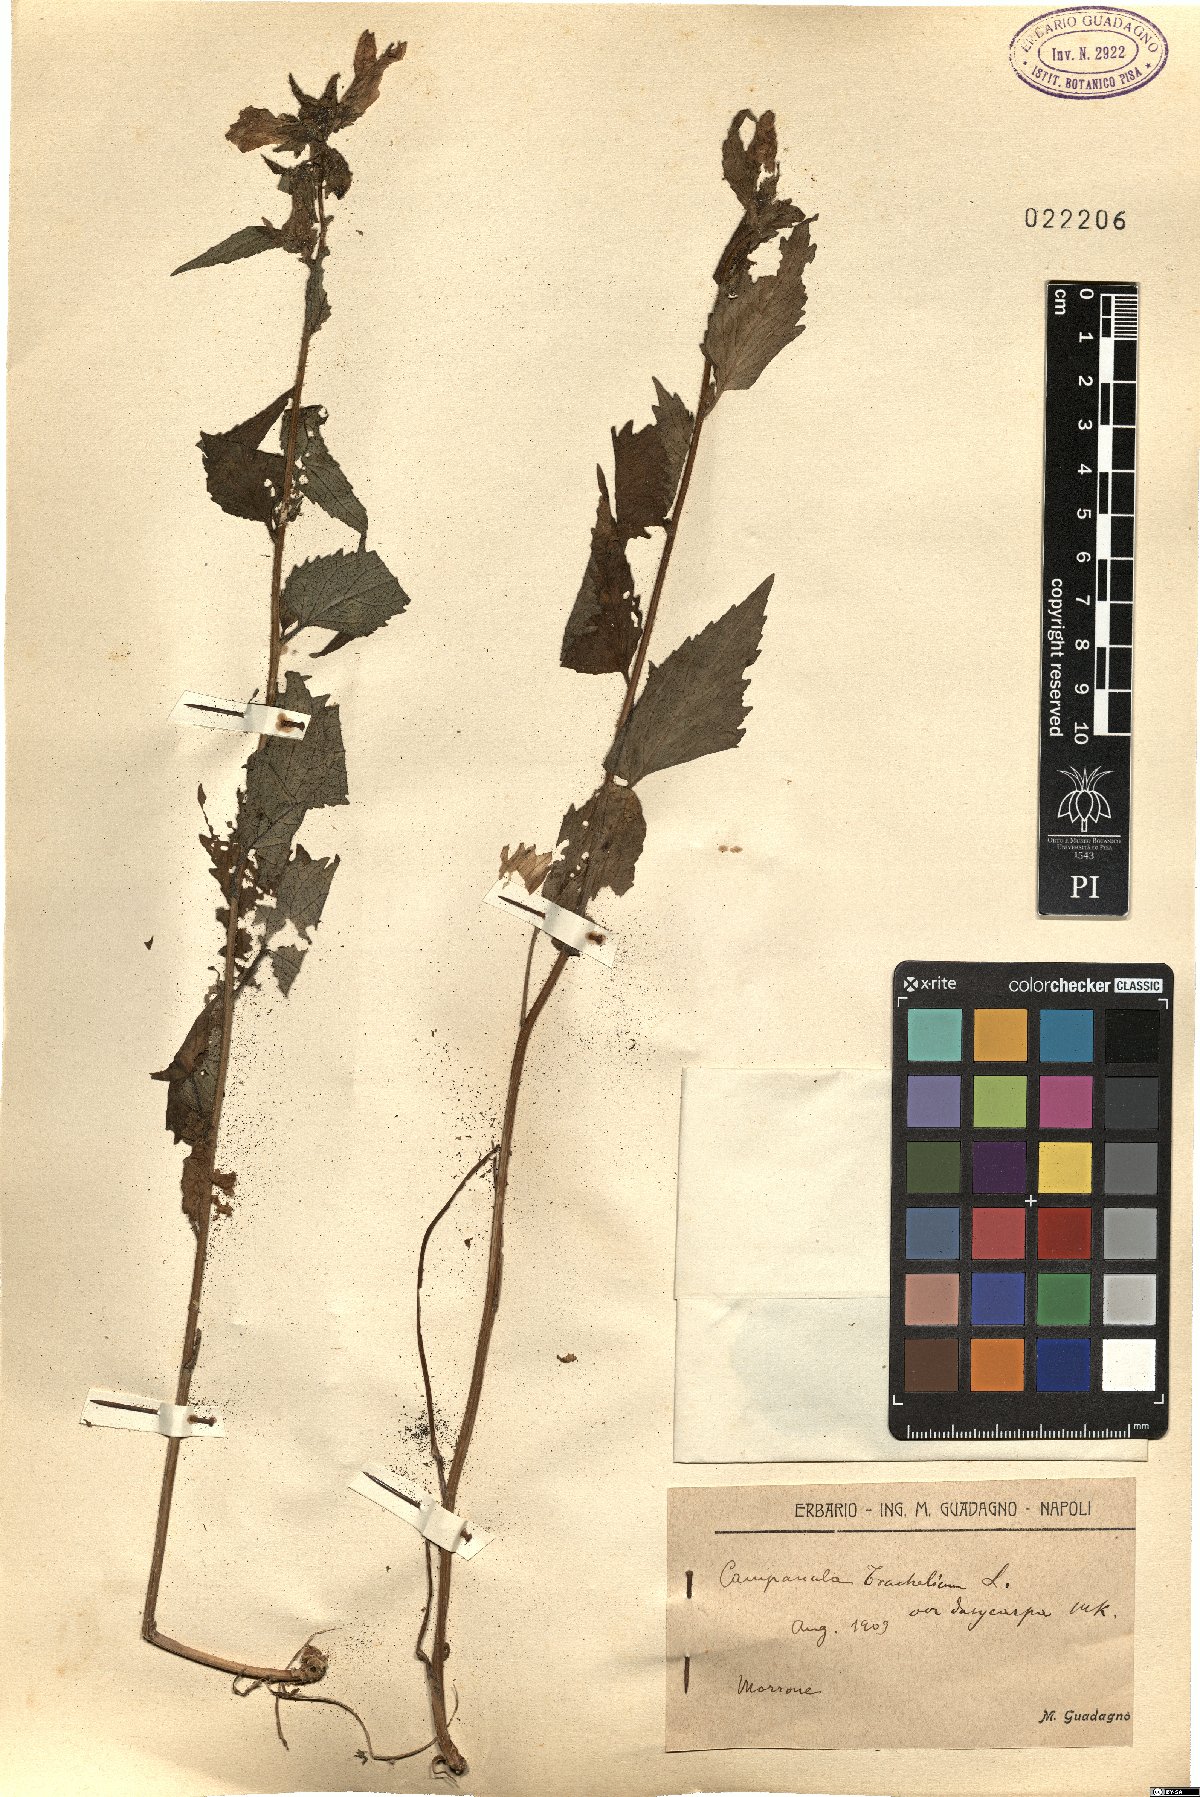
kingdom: Plantae
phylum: Tracheophyta
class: Magnoliopsida
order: Asterales
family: Campanulaceae
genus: Campanula
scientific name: Campanula trachelium
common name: Nettle-leaved bellflower
